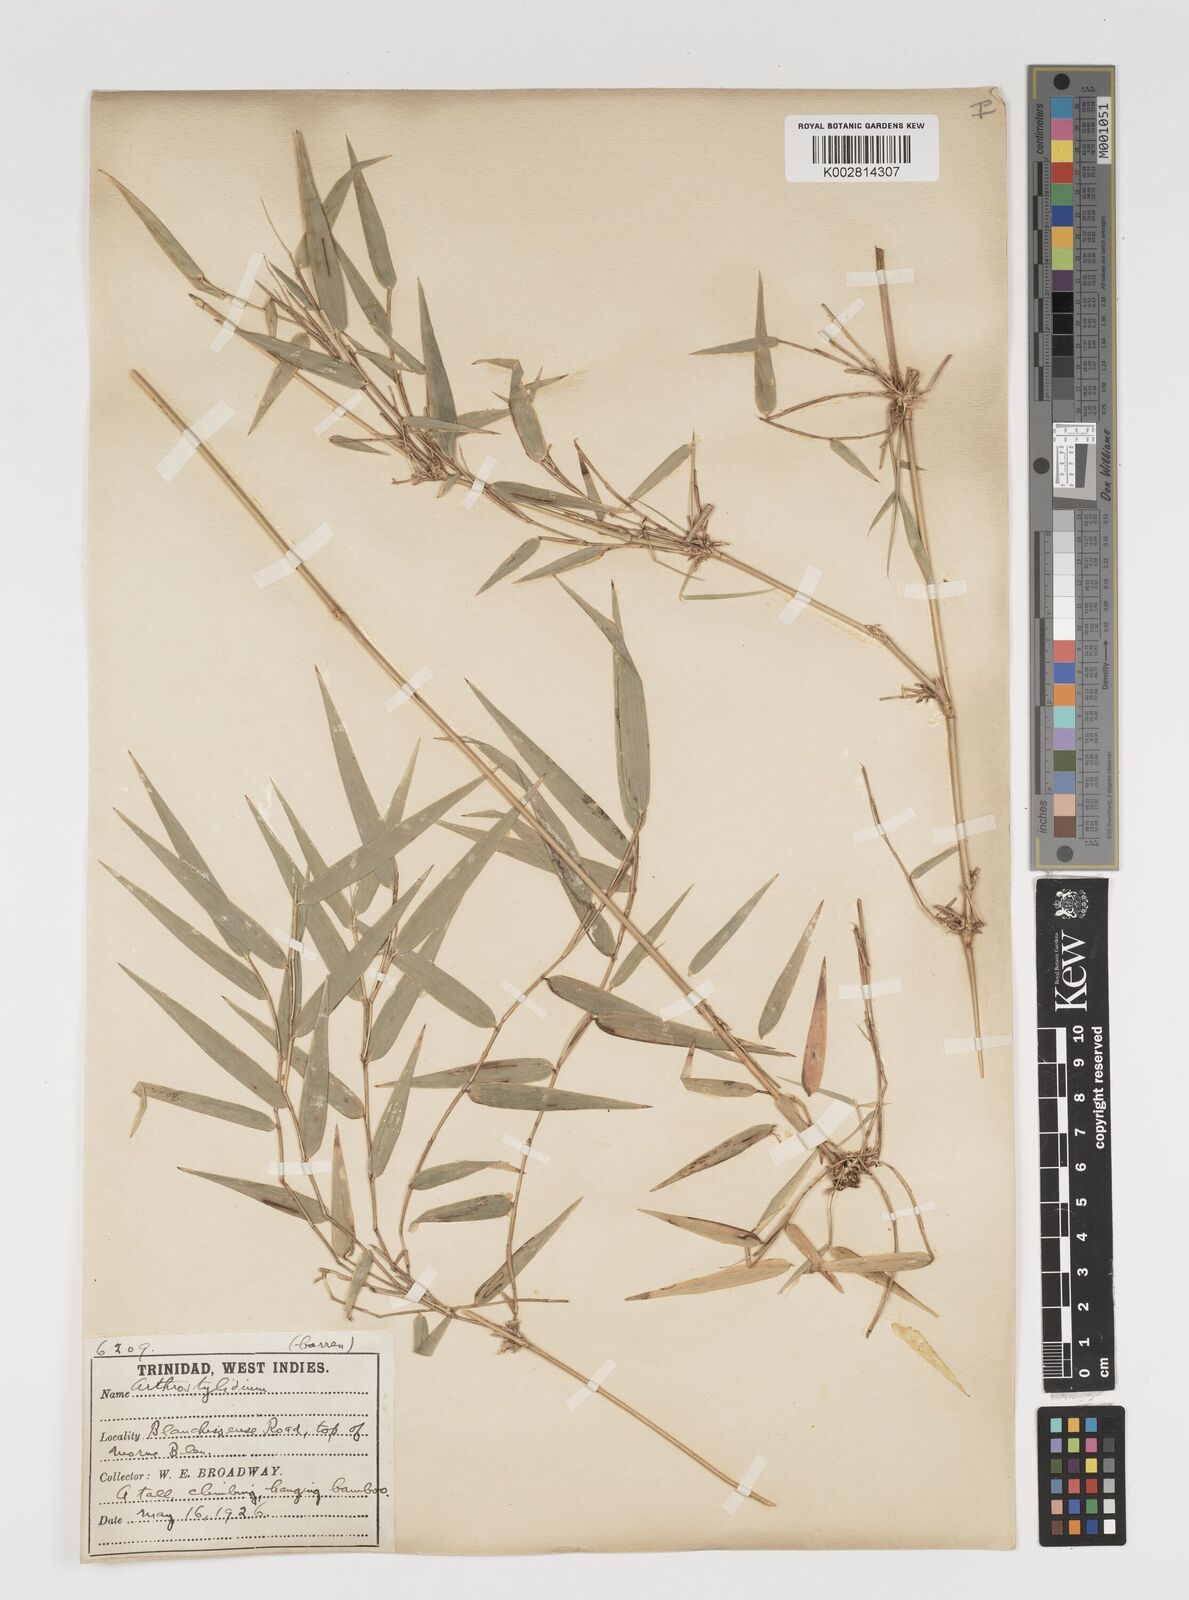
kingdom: Plantae
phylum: Tracheophyta
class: Liliopsida
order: Poales
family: Poaceae
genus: Arthrostylidium
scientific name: Arthrostylidium
